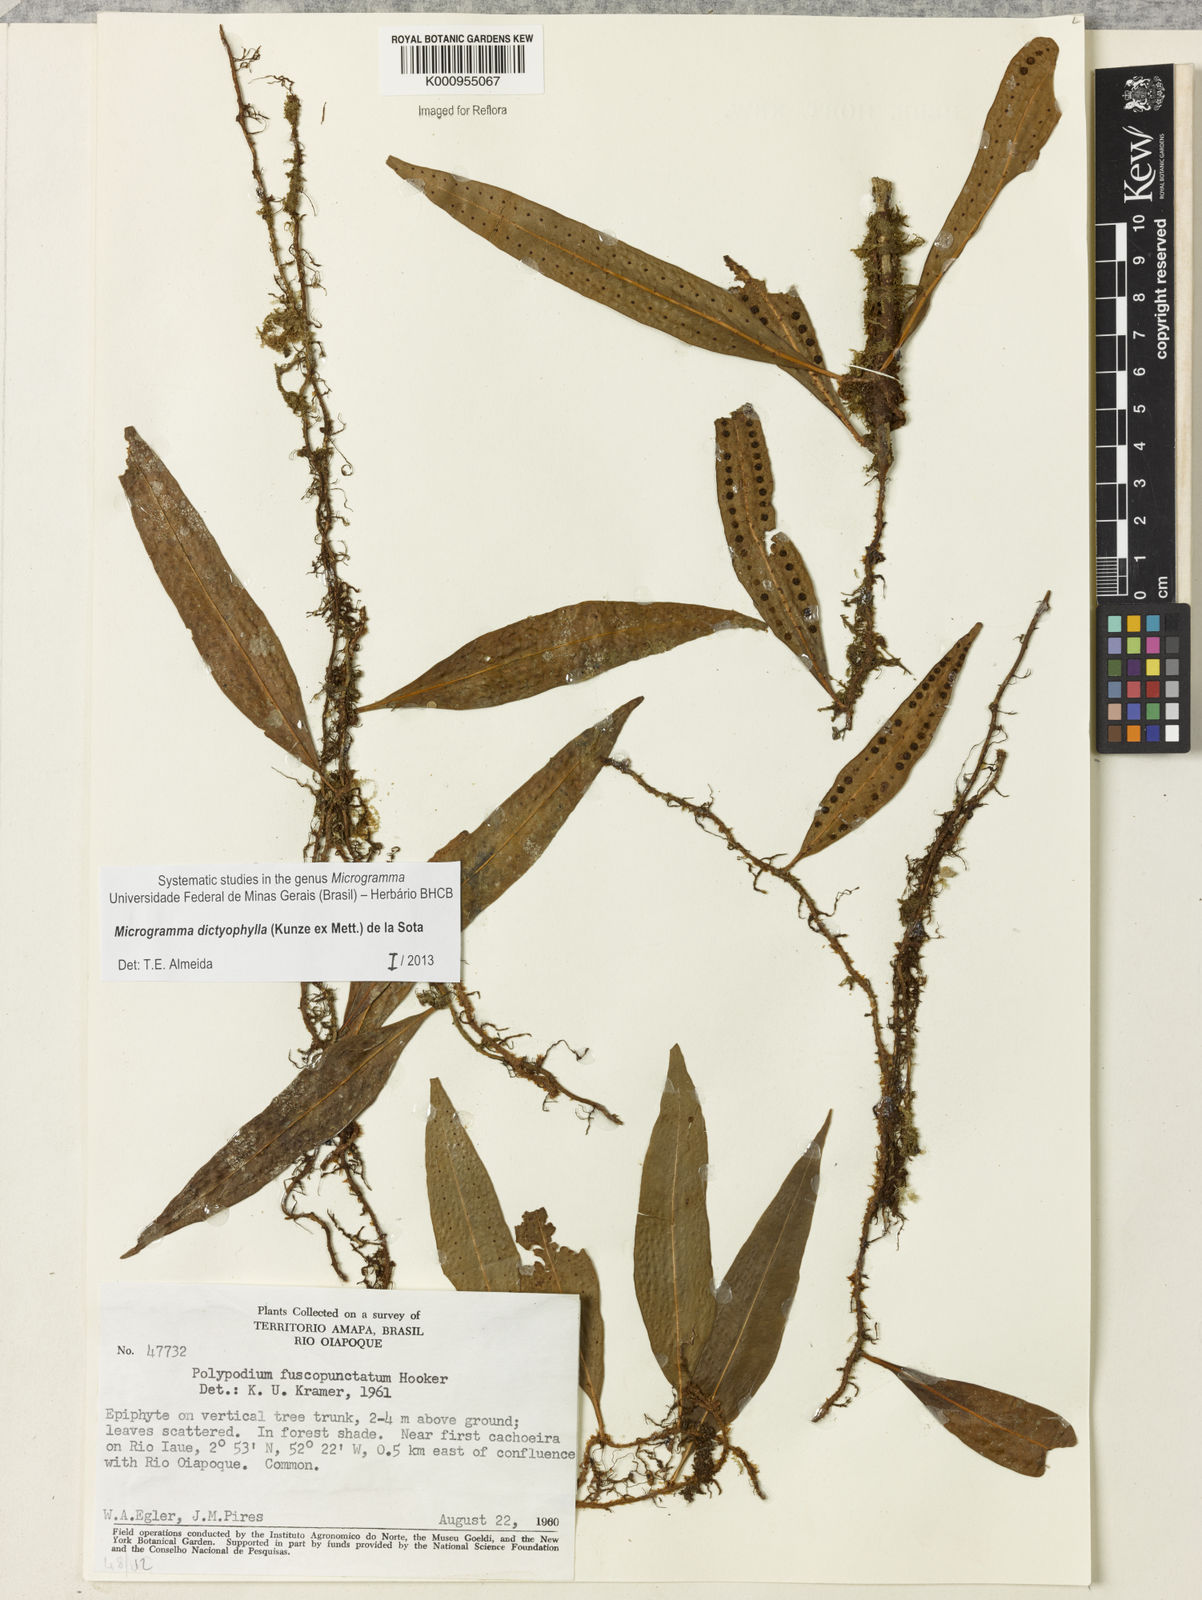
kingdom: Plantae
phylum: Tracheophyta
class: Polypodiopsida
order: Polypodiales
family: Polypodiaceae
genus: Microgramma
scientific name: Microgramma dictyophylla
